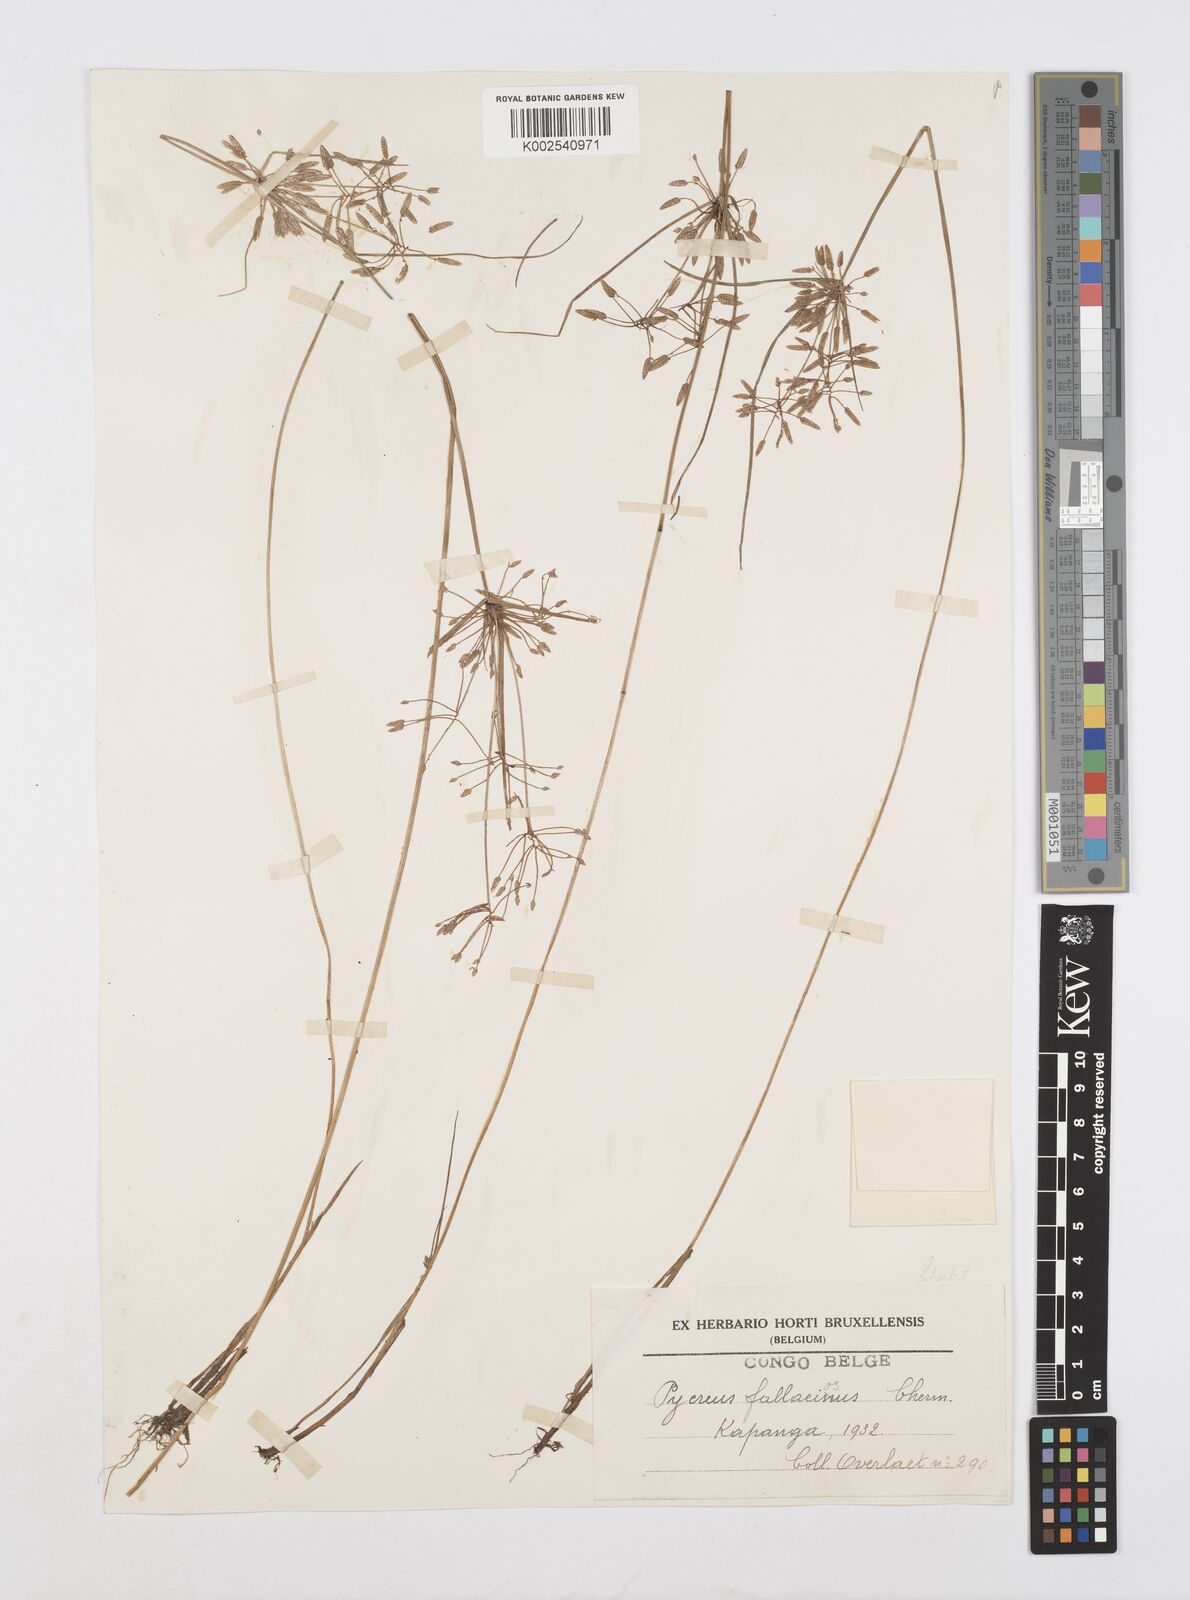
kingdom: Plantae
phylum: Tracheophyta
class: Liliopsida
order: Poales
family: Cyperaceae
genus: Cyperus
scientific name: Cyperus flavescens
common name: Yellow galingale
